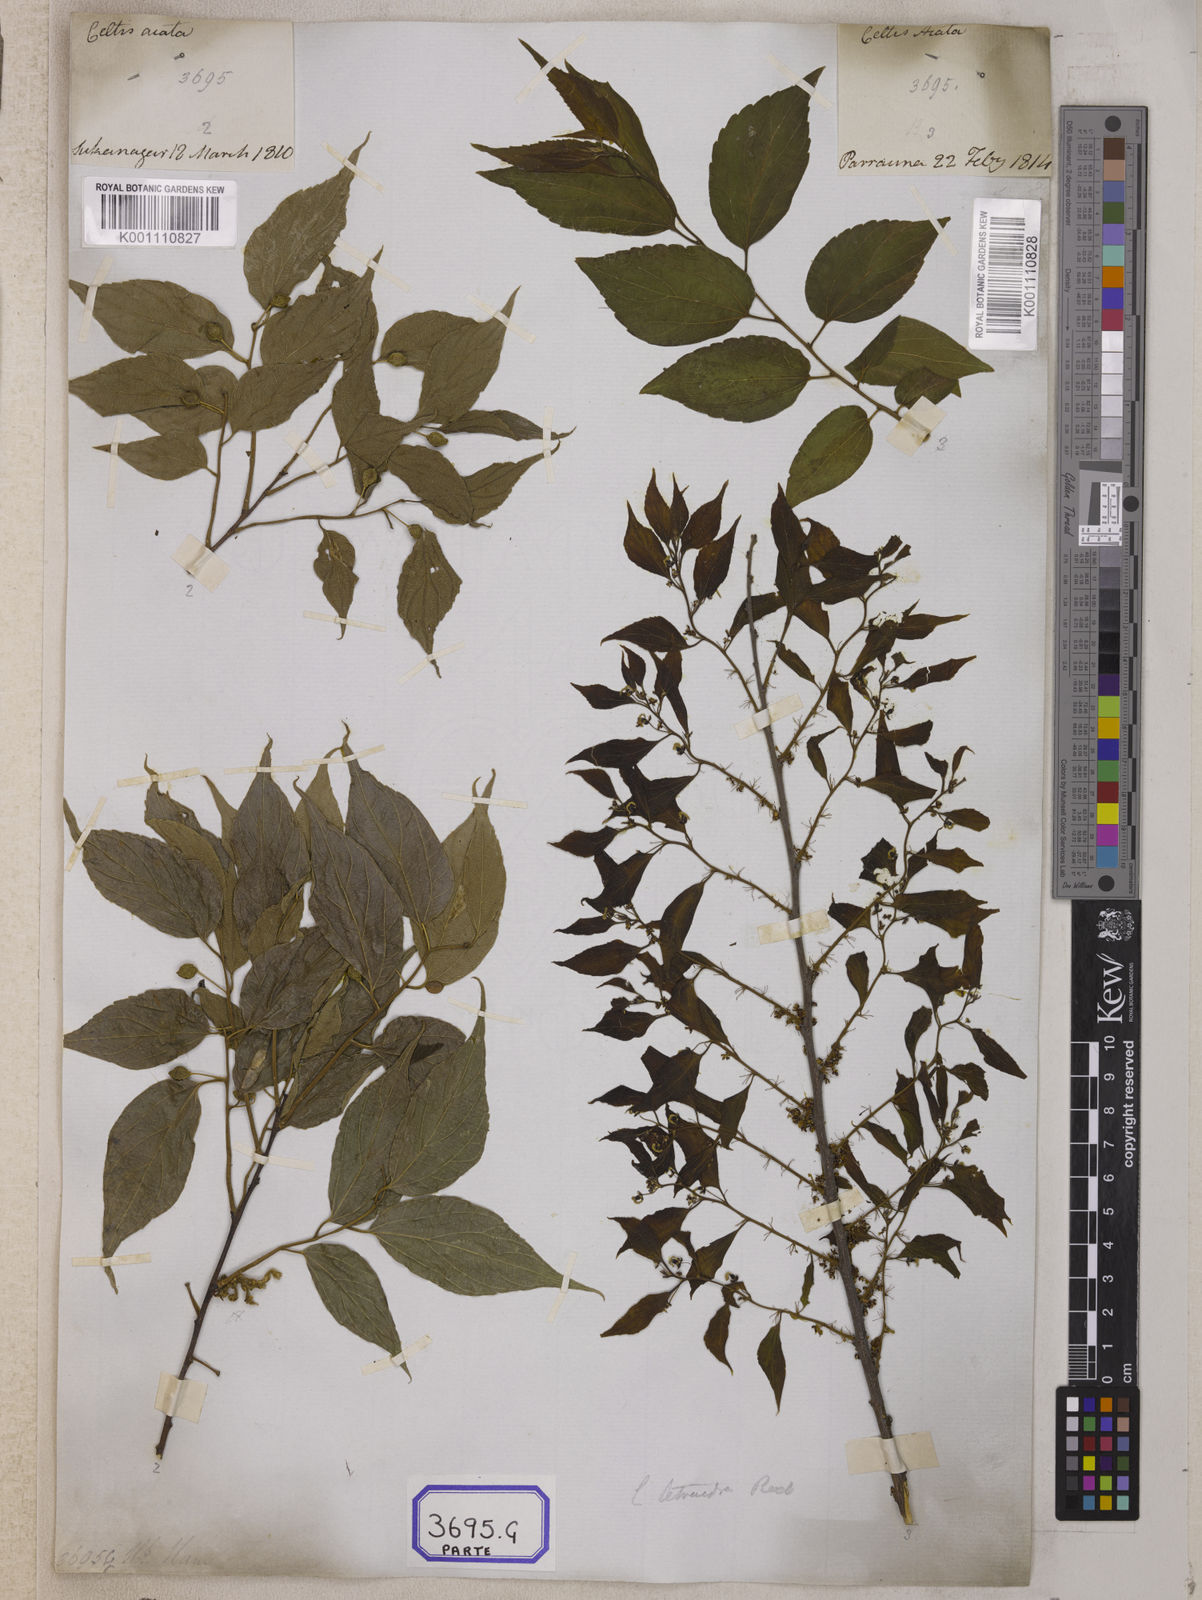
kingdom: Plantae
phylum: Tracheophyta
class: Magnoliopsida
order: Rosales
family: Cannabaceae
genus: Celtis
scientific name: Celtis
